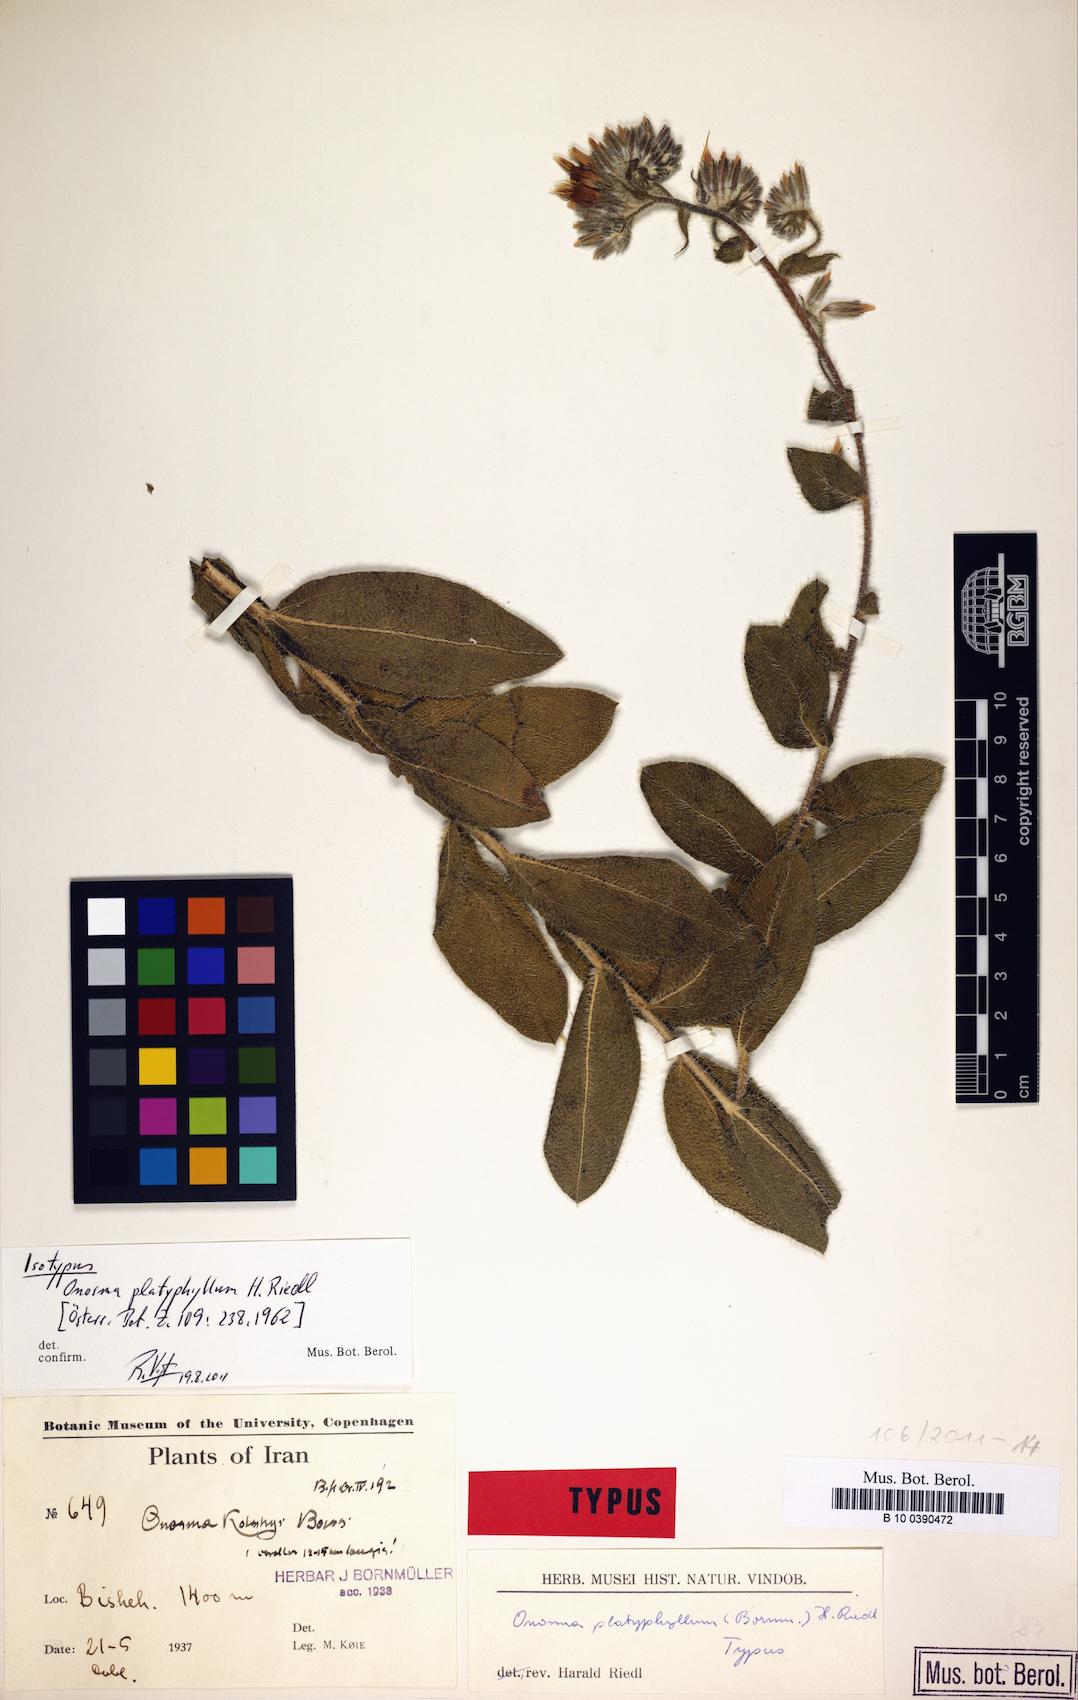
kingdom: Plantae
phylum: Tracheophyta
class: Magnoliopsida
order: Boraginales
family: Boraginaceae
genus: Maharanga
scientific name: Maharanga platyphylla
